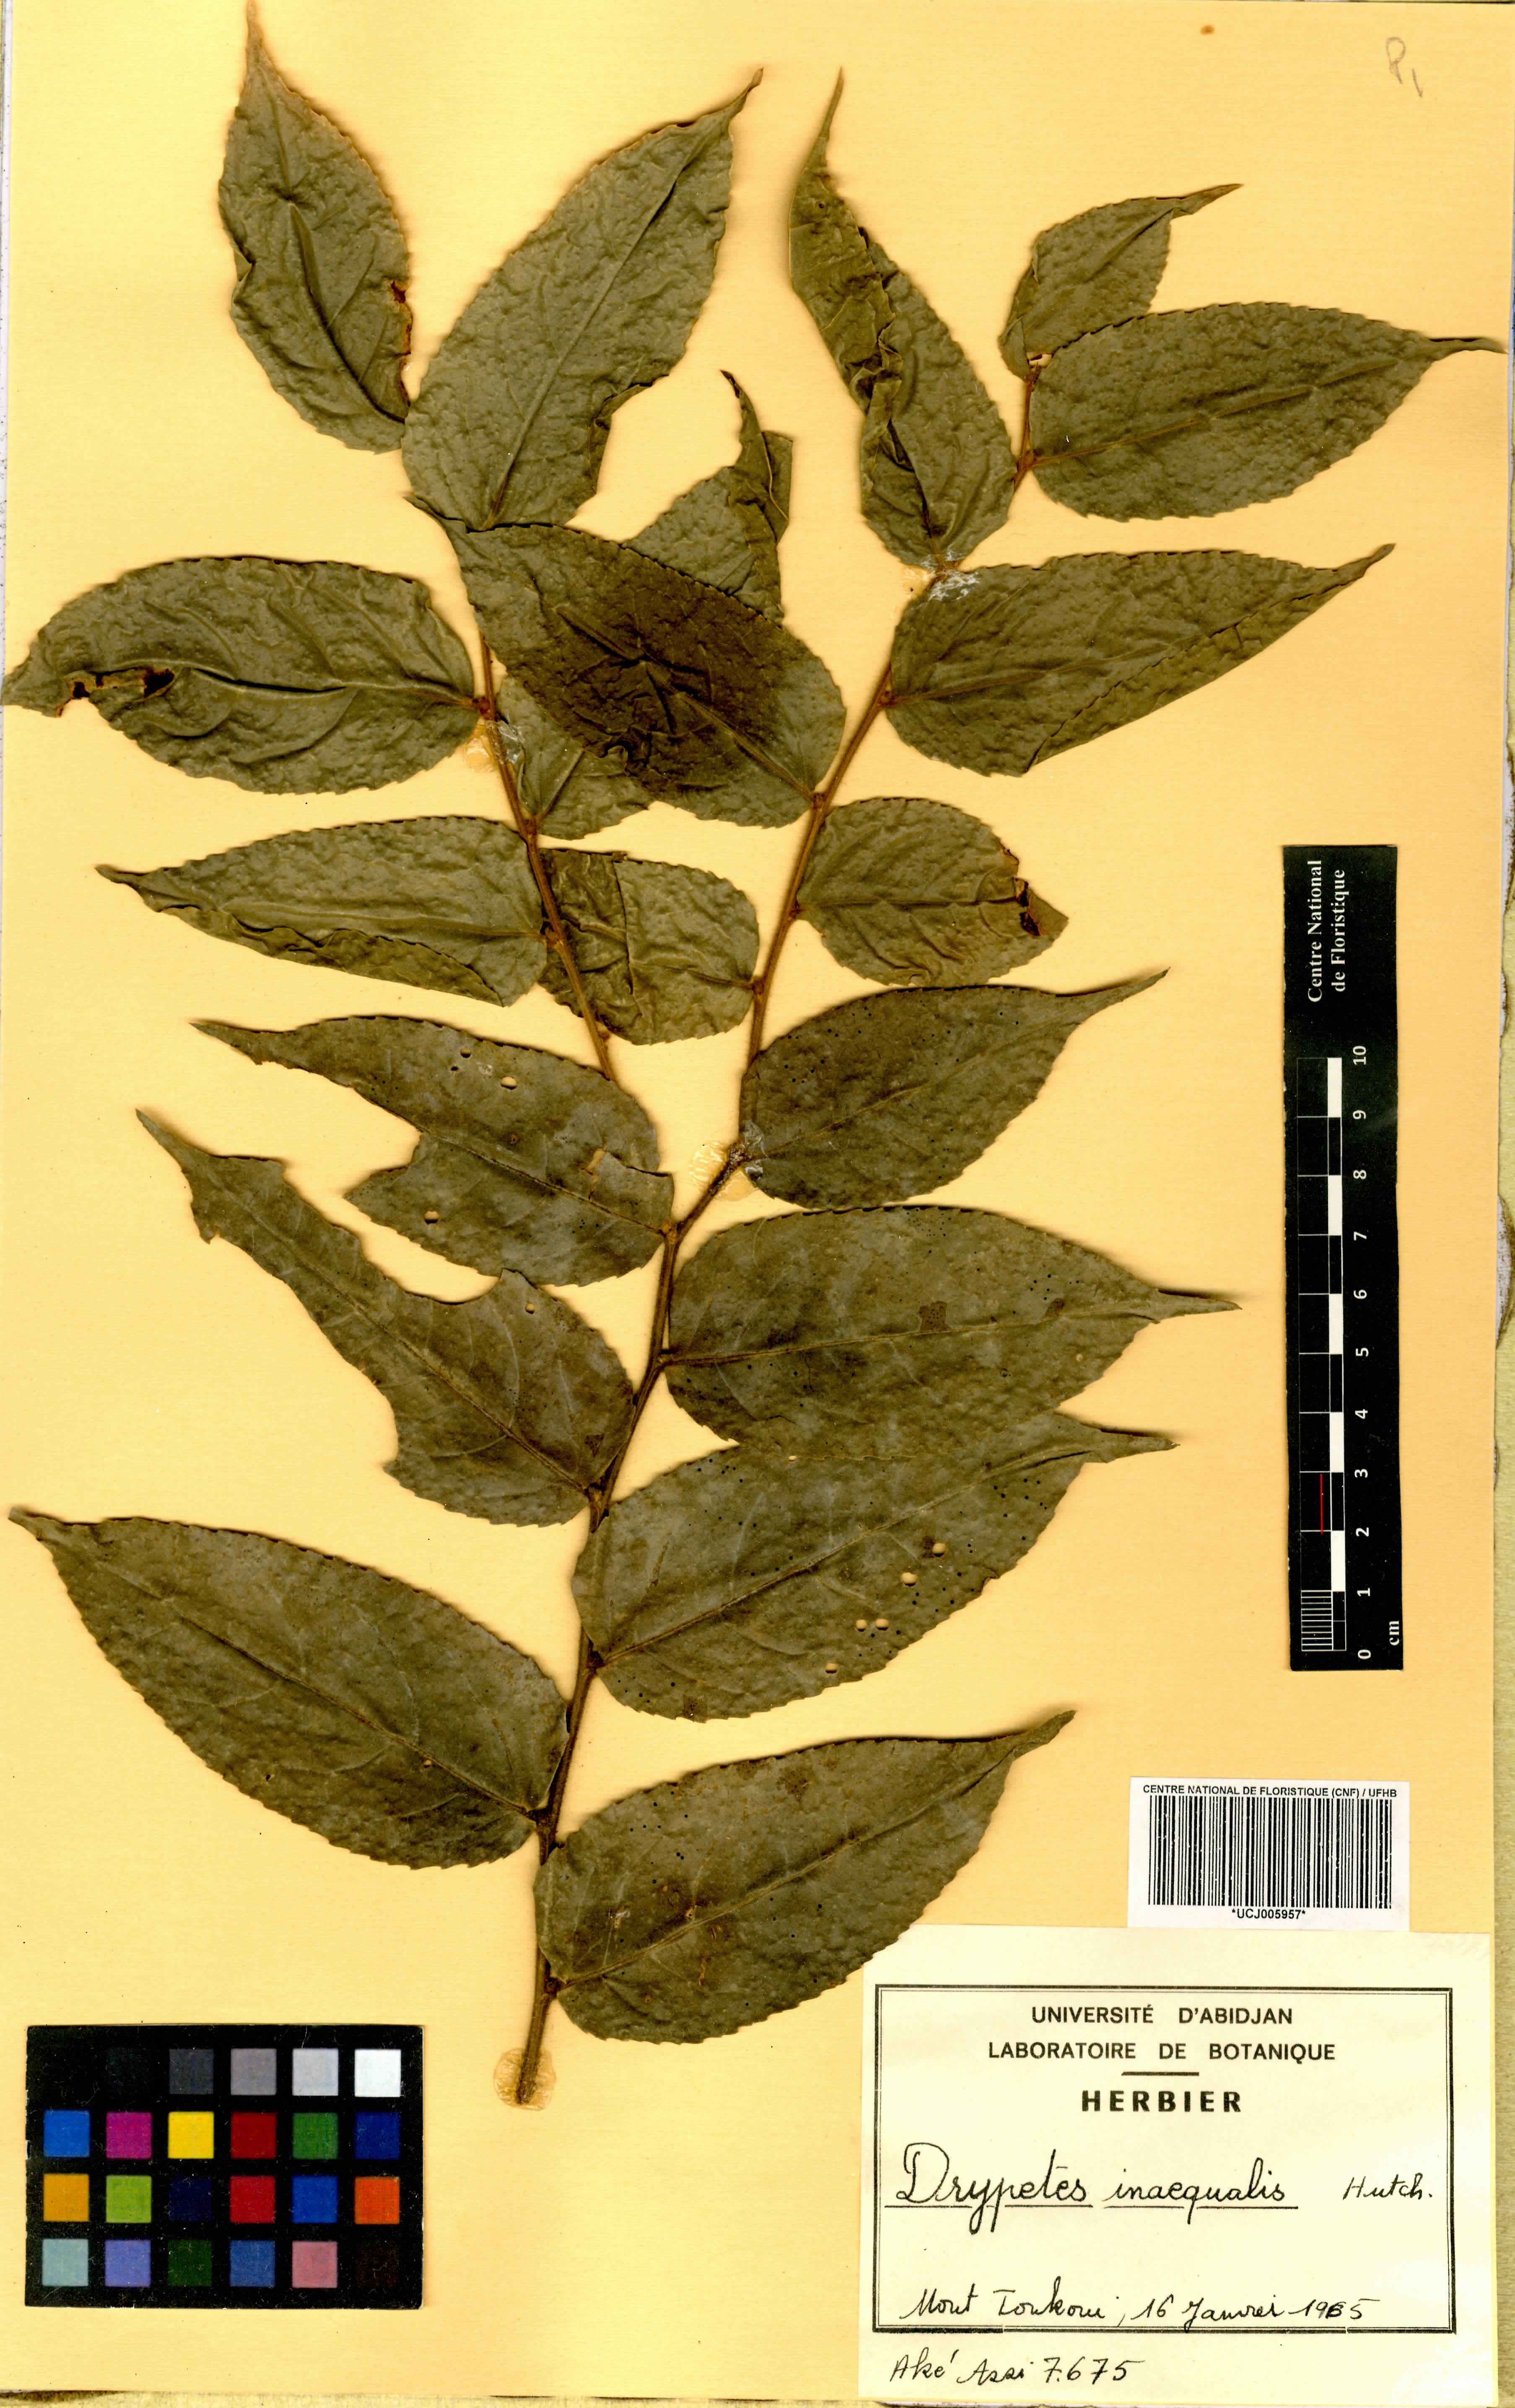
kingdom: Plantae
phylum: Tracheophyta
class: Magnoliopsida
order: Malpighiales
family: Putranjivaceae
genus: Drypetes
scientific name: Drypetes inaequalis
